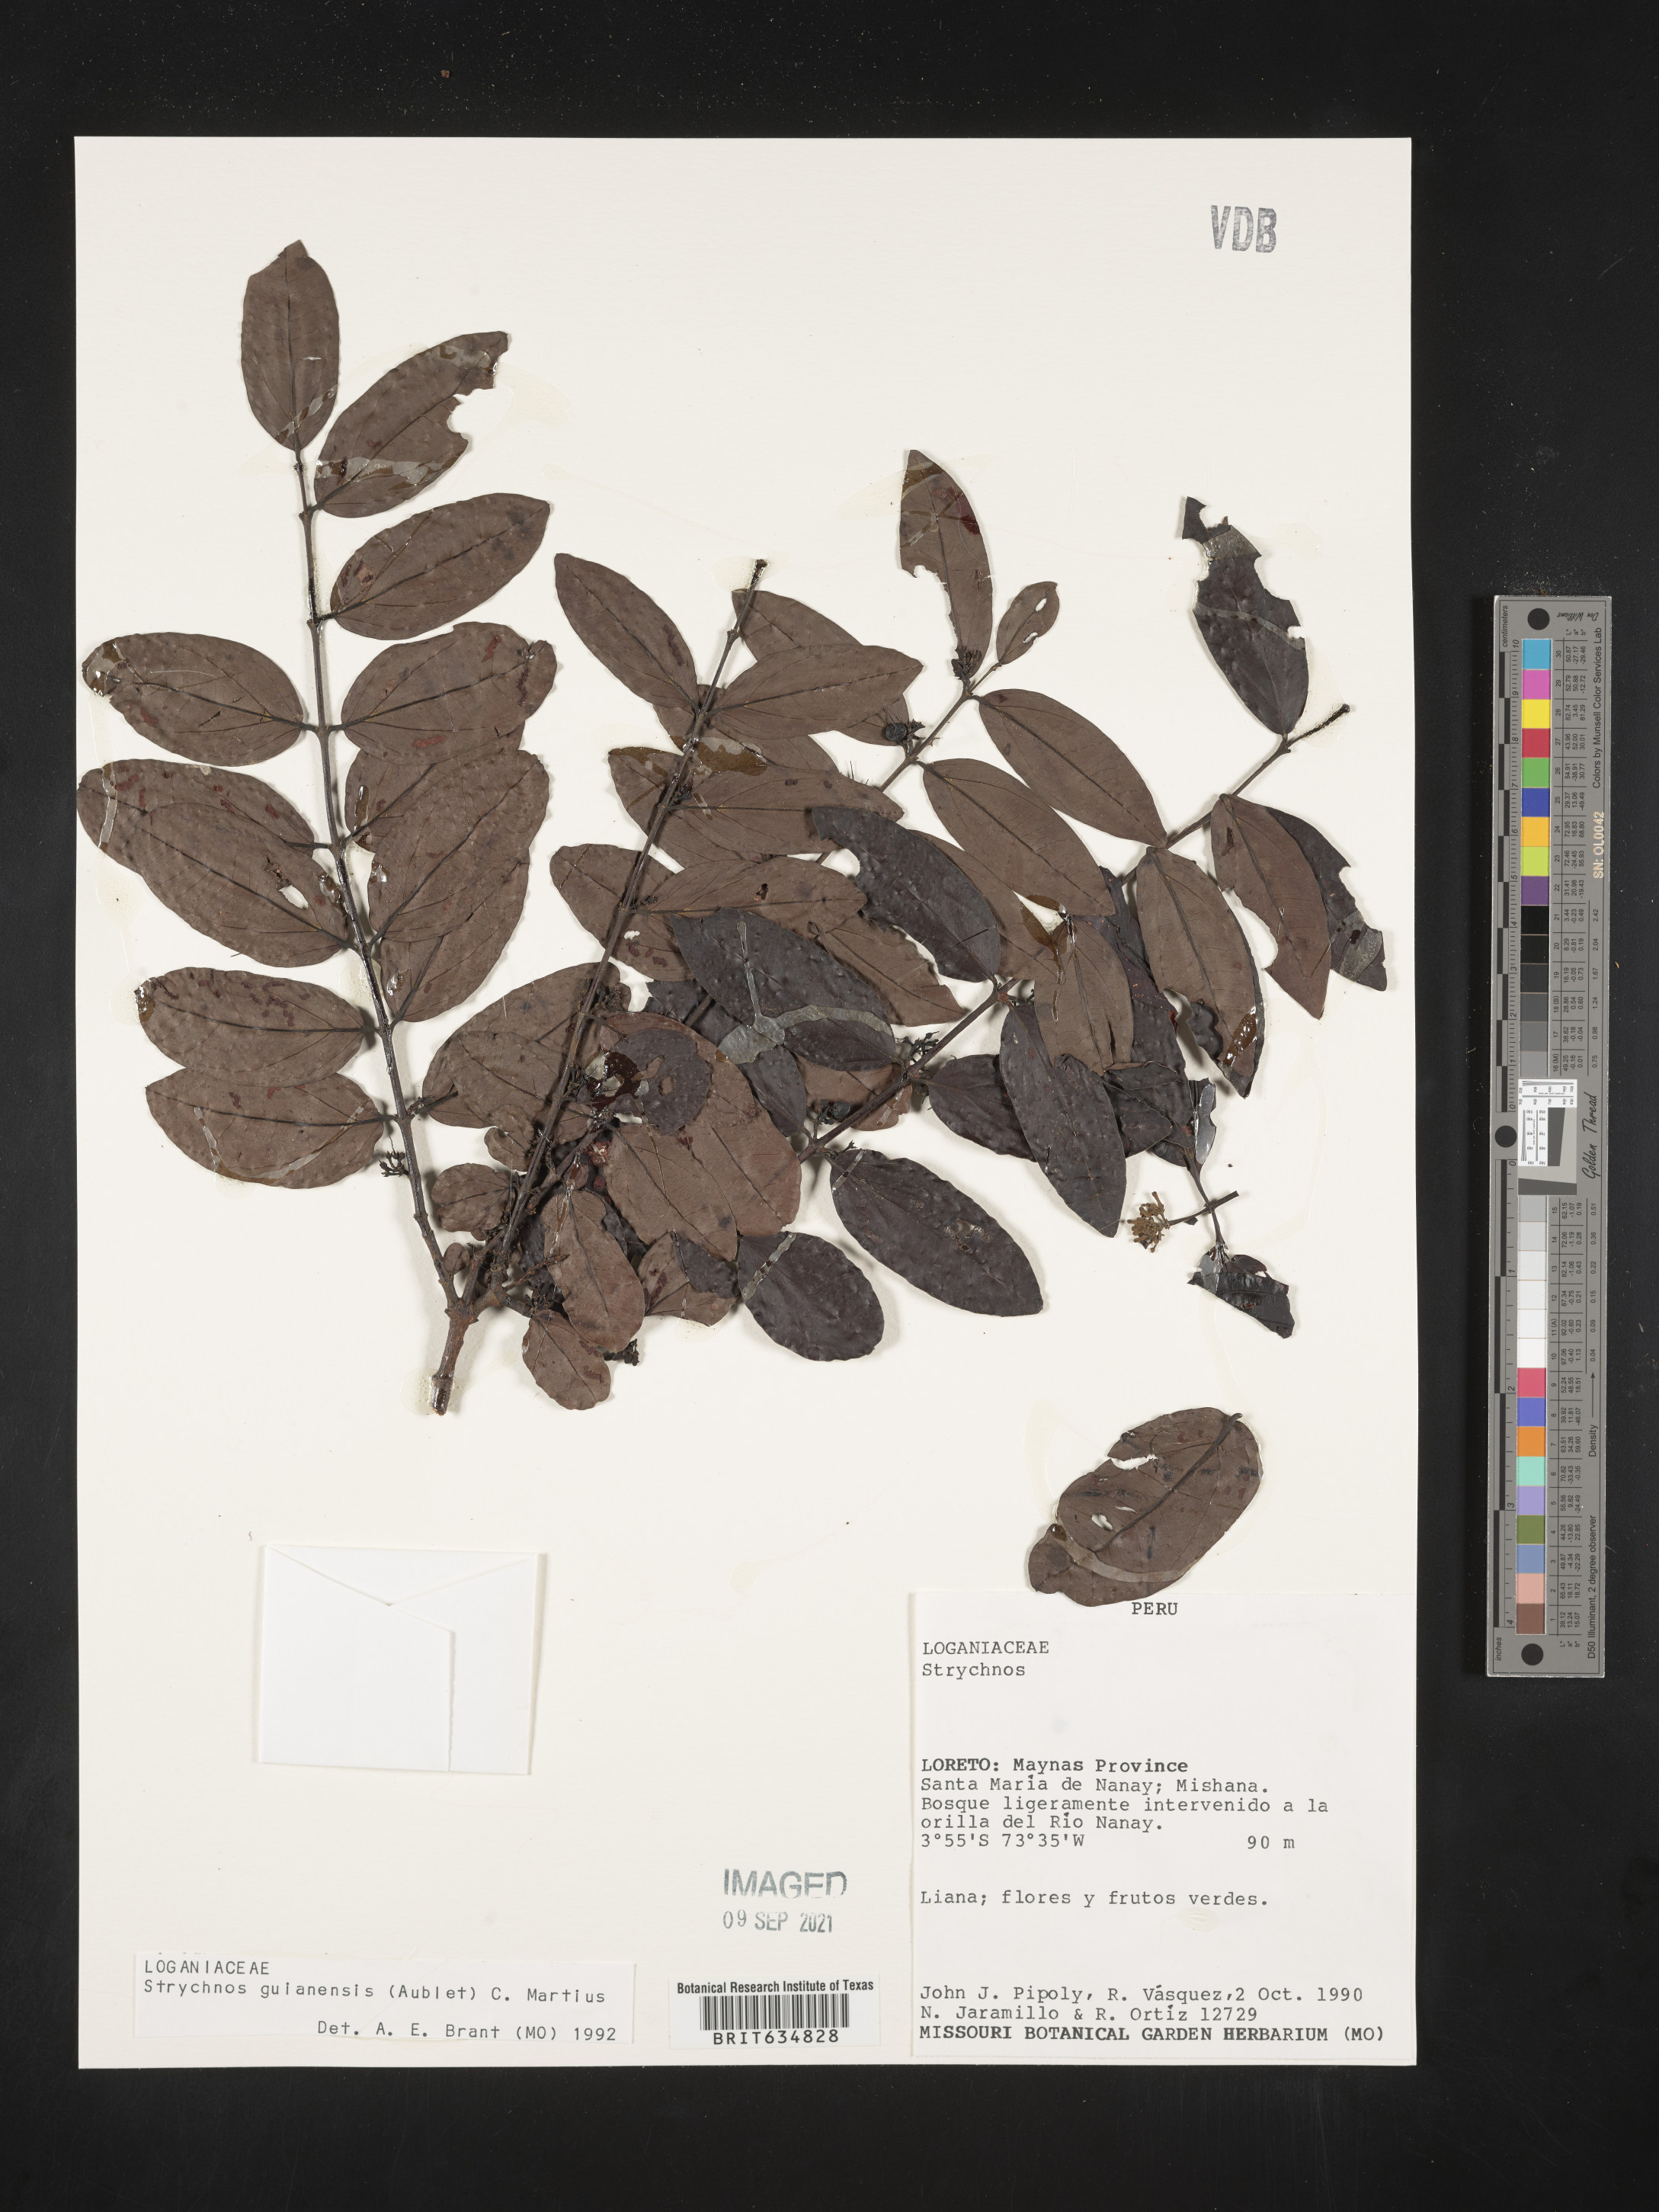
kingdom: Plantae
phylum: Tracheophyta
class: Magnoliopsida
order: Gentianales
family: Loganiaceae
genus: Strychnos
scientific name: Strychnos
